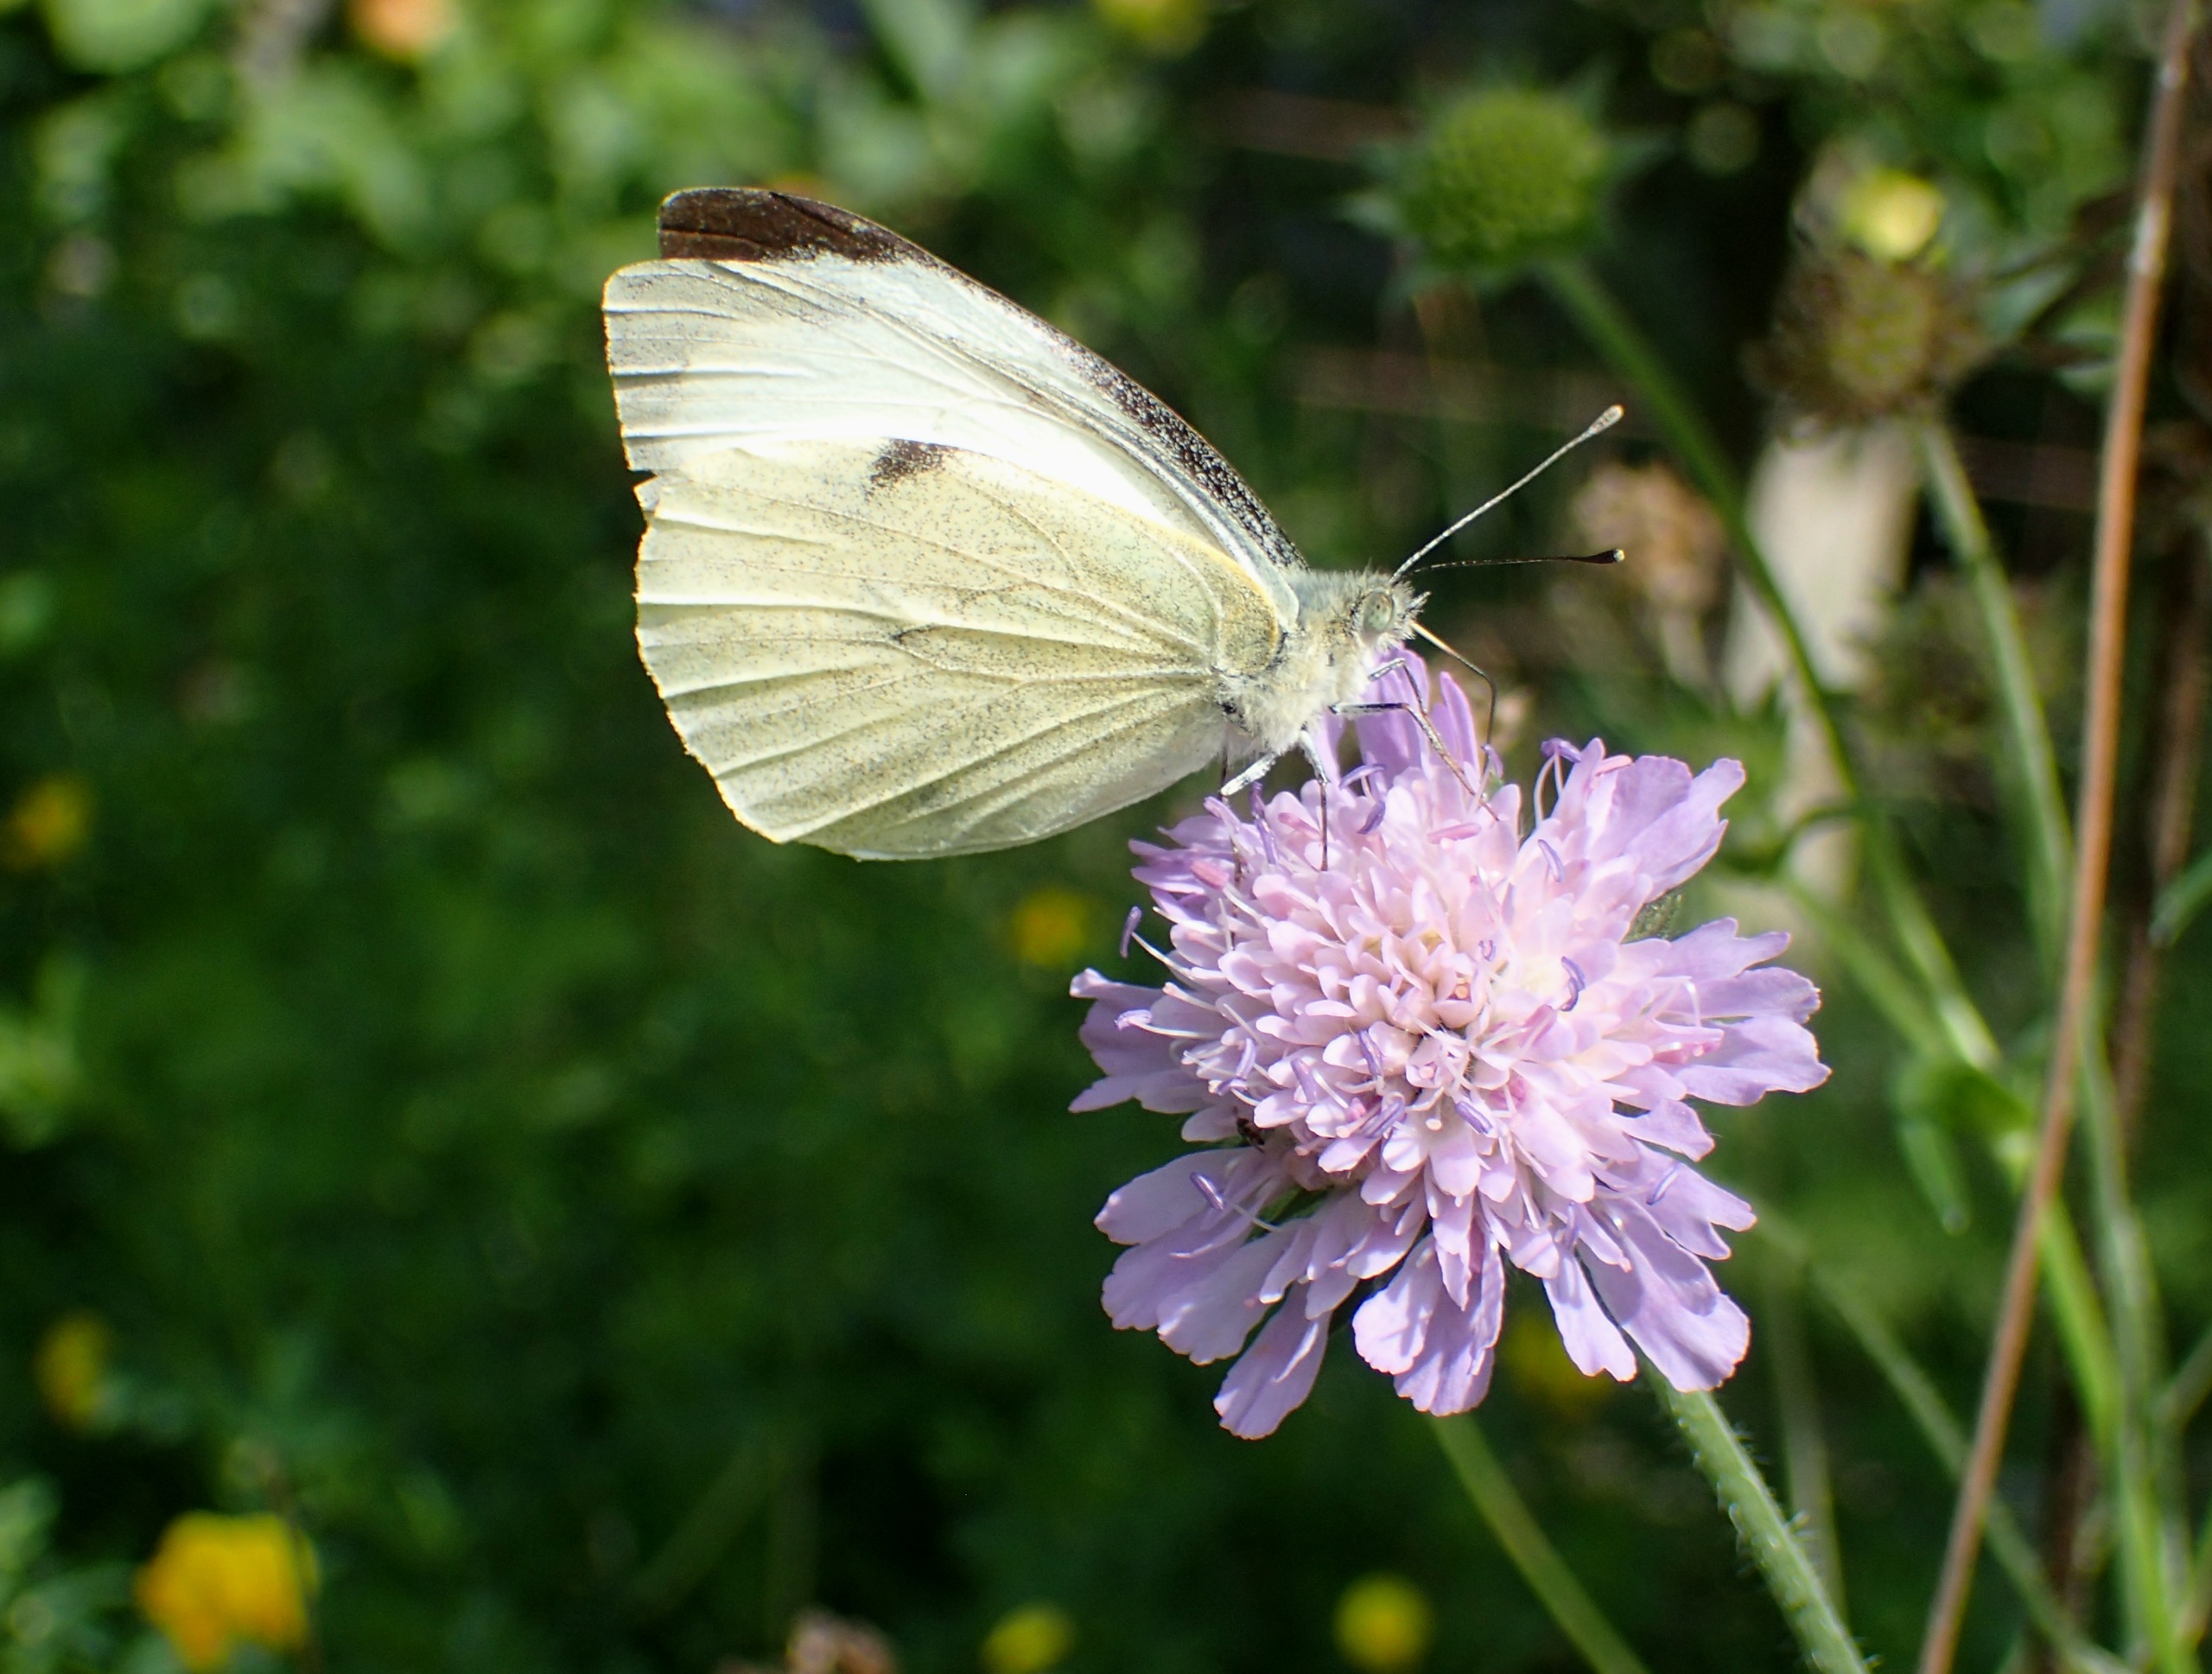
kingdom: Animalia
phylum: Arthropoda
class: Insecta
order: Lepidoptera
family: Pieridae
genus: Pieris
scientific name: Pieris brassicae
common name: Stor kålsommerfugl
